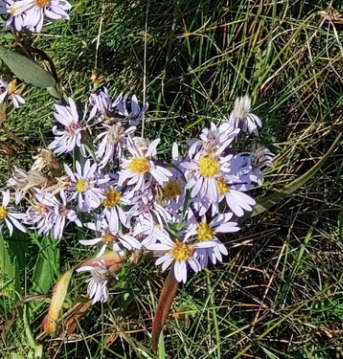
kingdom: Plantae
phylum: Tracheophyta
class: Magnoliopsida
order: Asterales
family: Asteraceae
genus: Tripolium
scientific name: Tripolium pannonicum
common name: Strandasters
